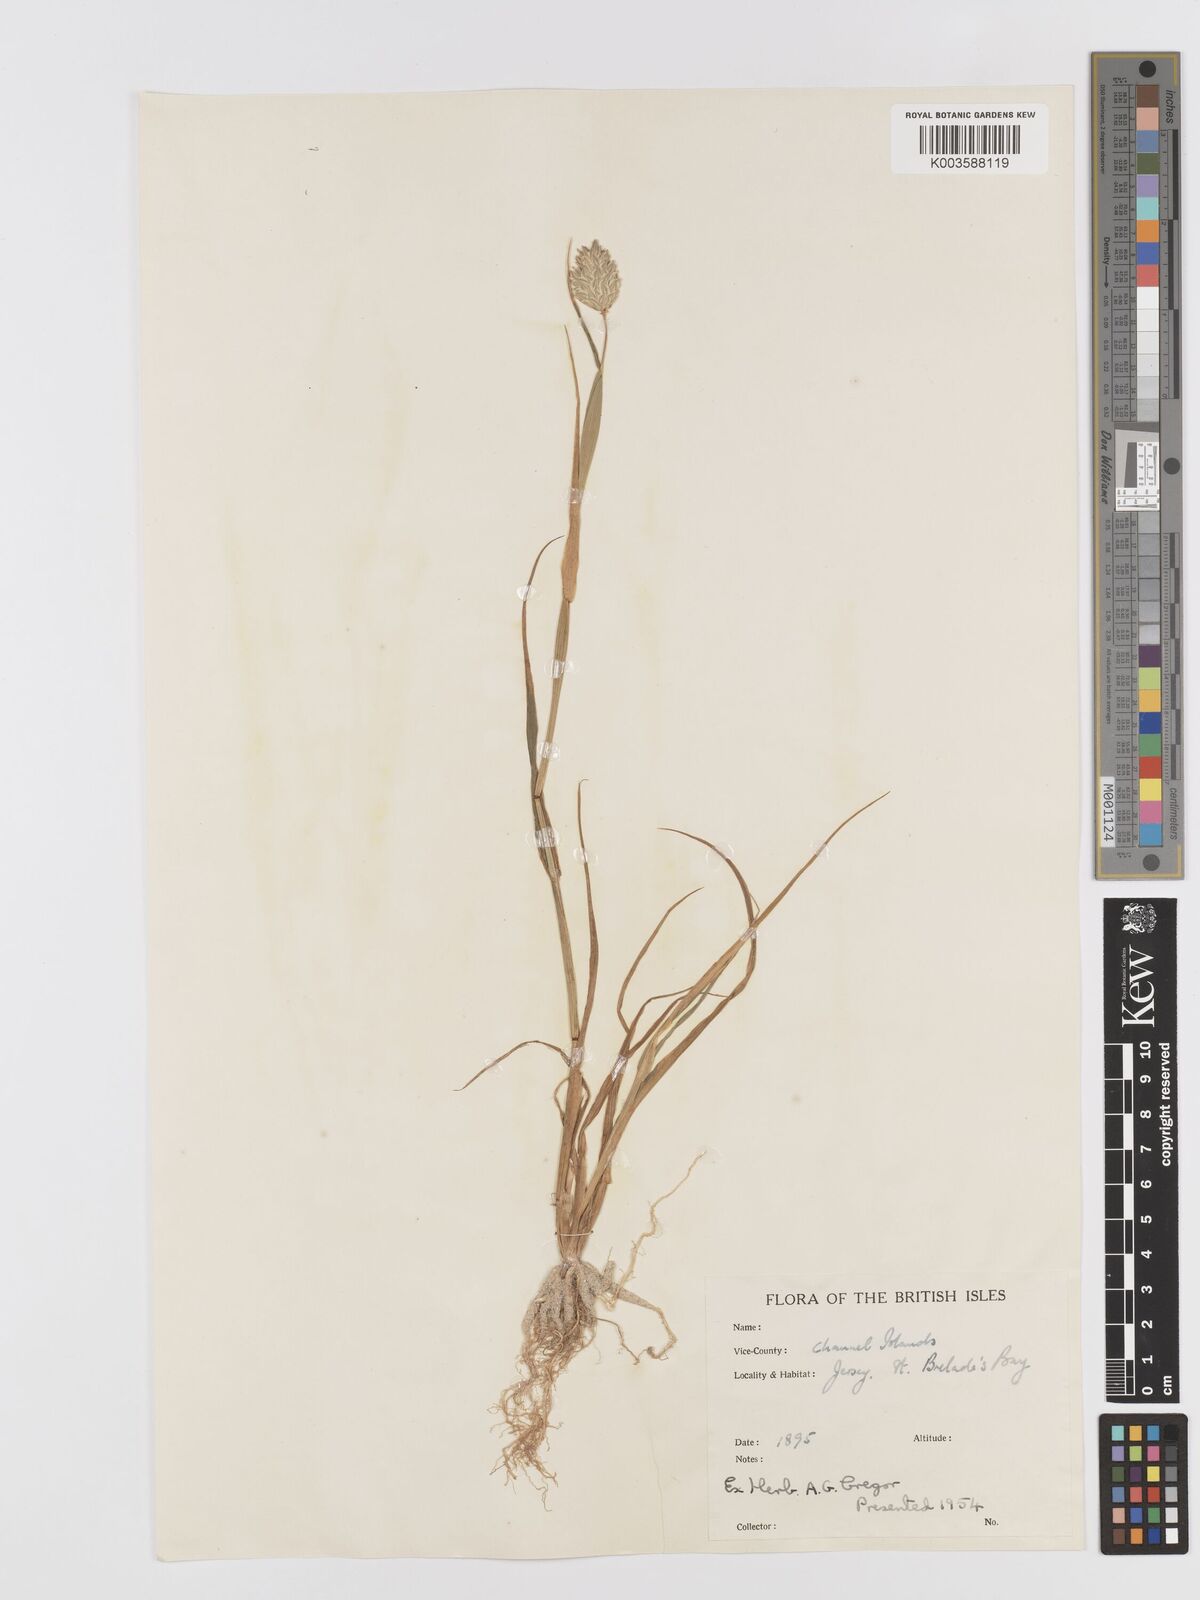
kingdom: Plantae
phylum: Tracheophyta
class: Liliopsida
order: Poales
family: Poaceae
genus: Phalaris
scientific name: Phalaris canariensis
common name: Annual canarygrass
